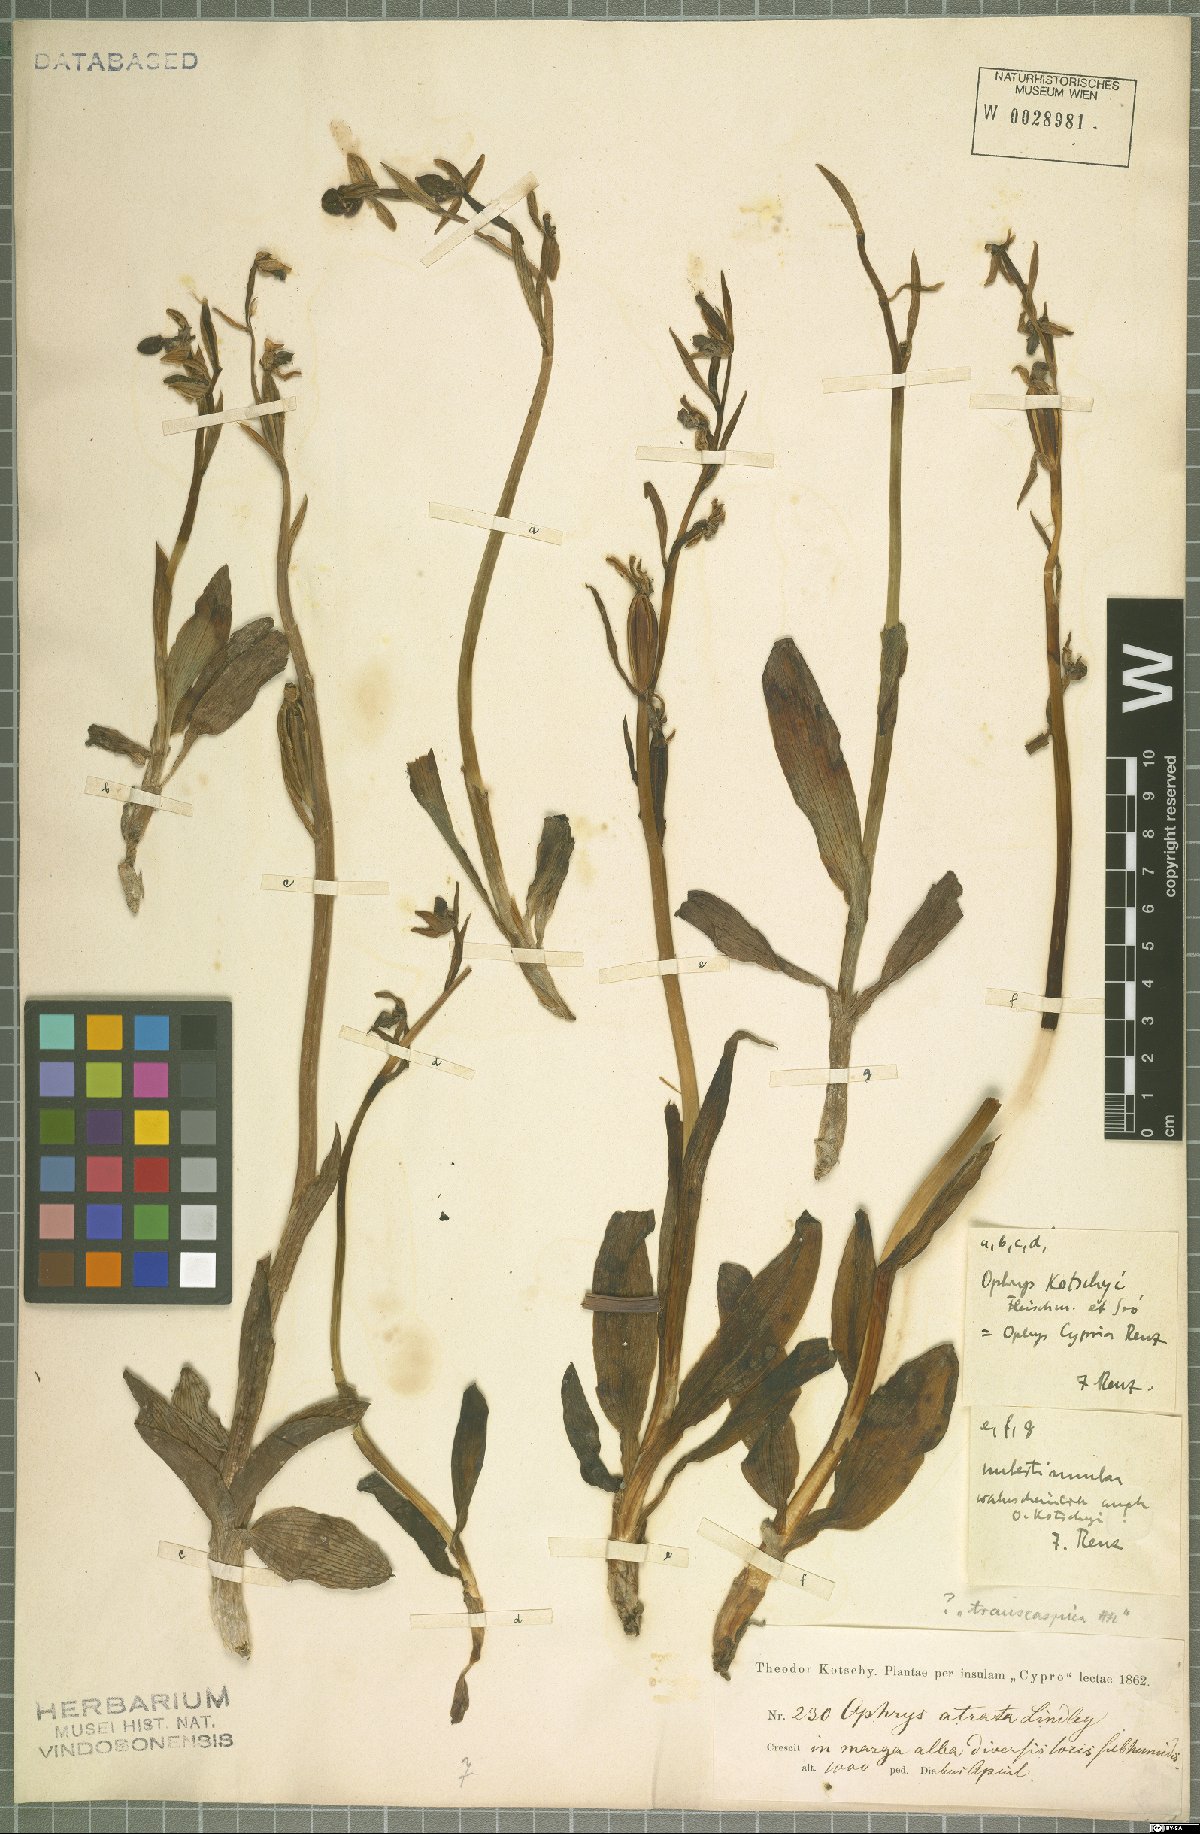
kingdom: Plantae
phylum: Tracheophyta
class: Liliopsida
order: Asparagales
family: Orchidaceae
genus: Ophrys
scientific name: Ophrys kotschyi
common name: Kotschy's ophrys
